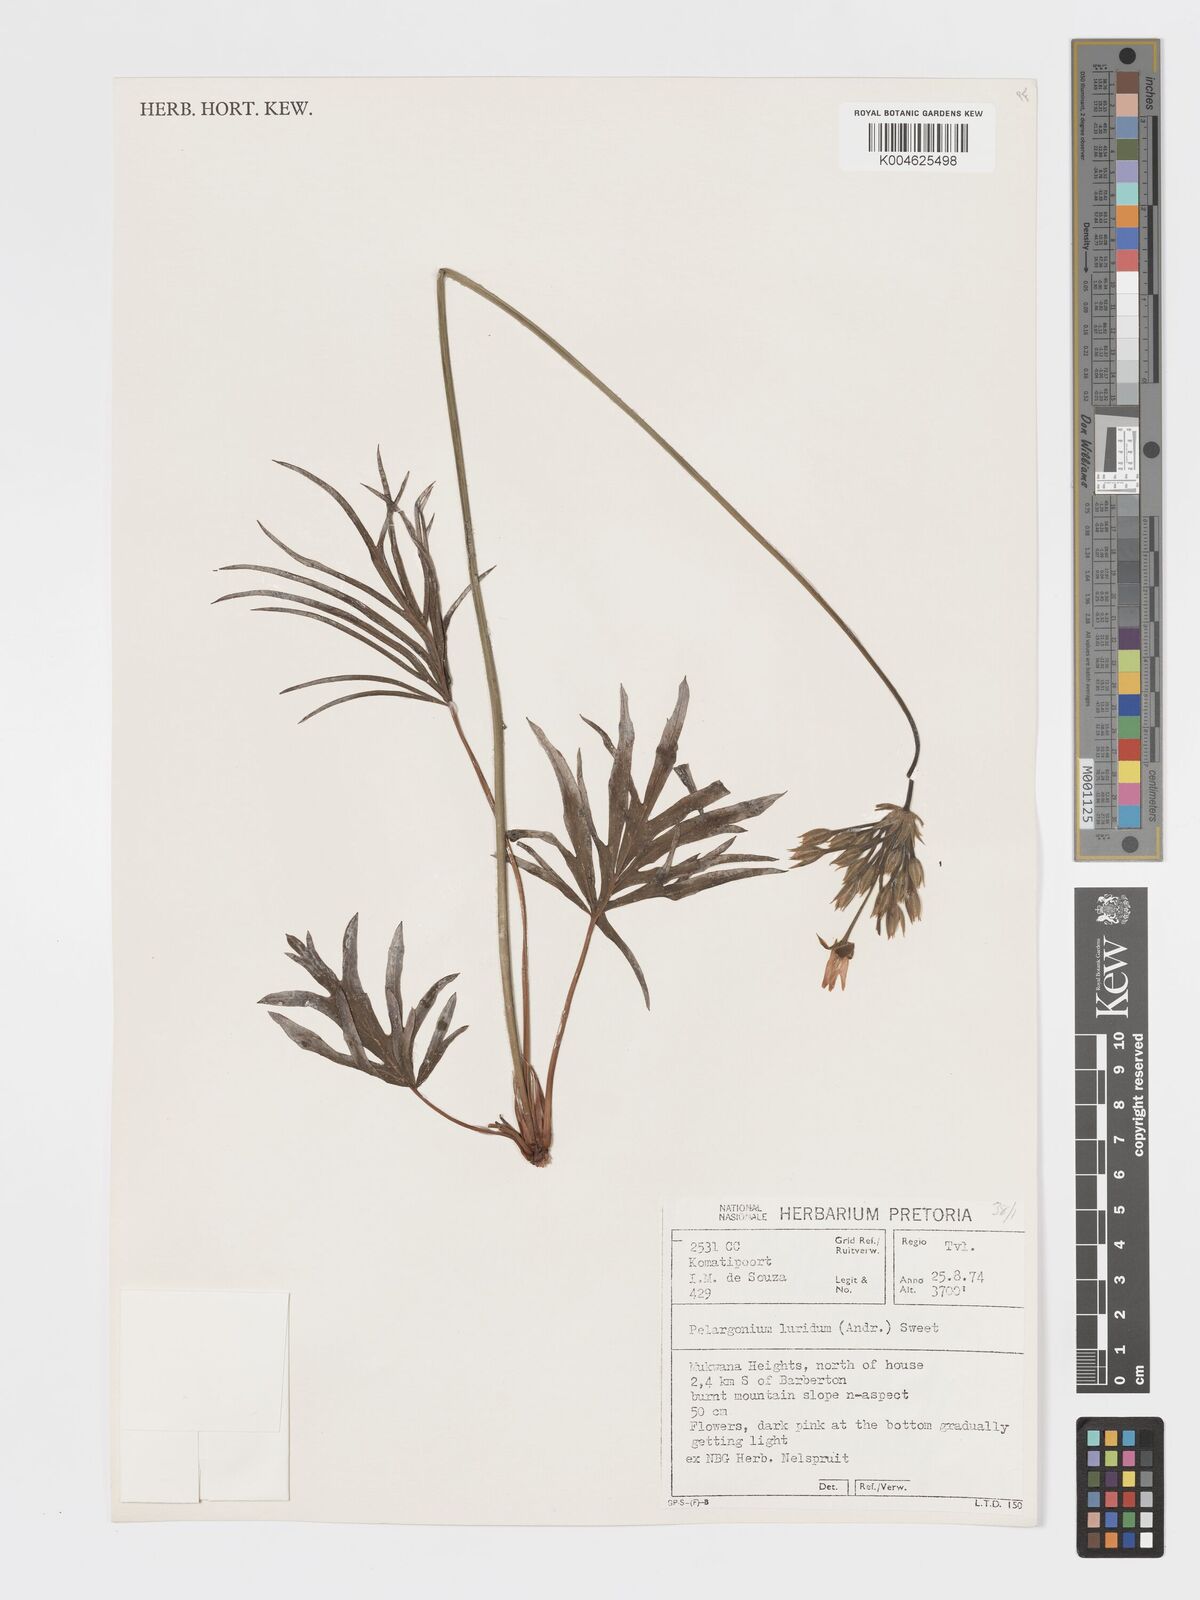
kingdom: Plantae
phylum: Tracheophyta
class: Magnoliopsida
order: Geraniales
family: Geraniaceae
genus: Pelargonium
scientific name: Pelargonium luridum
